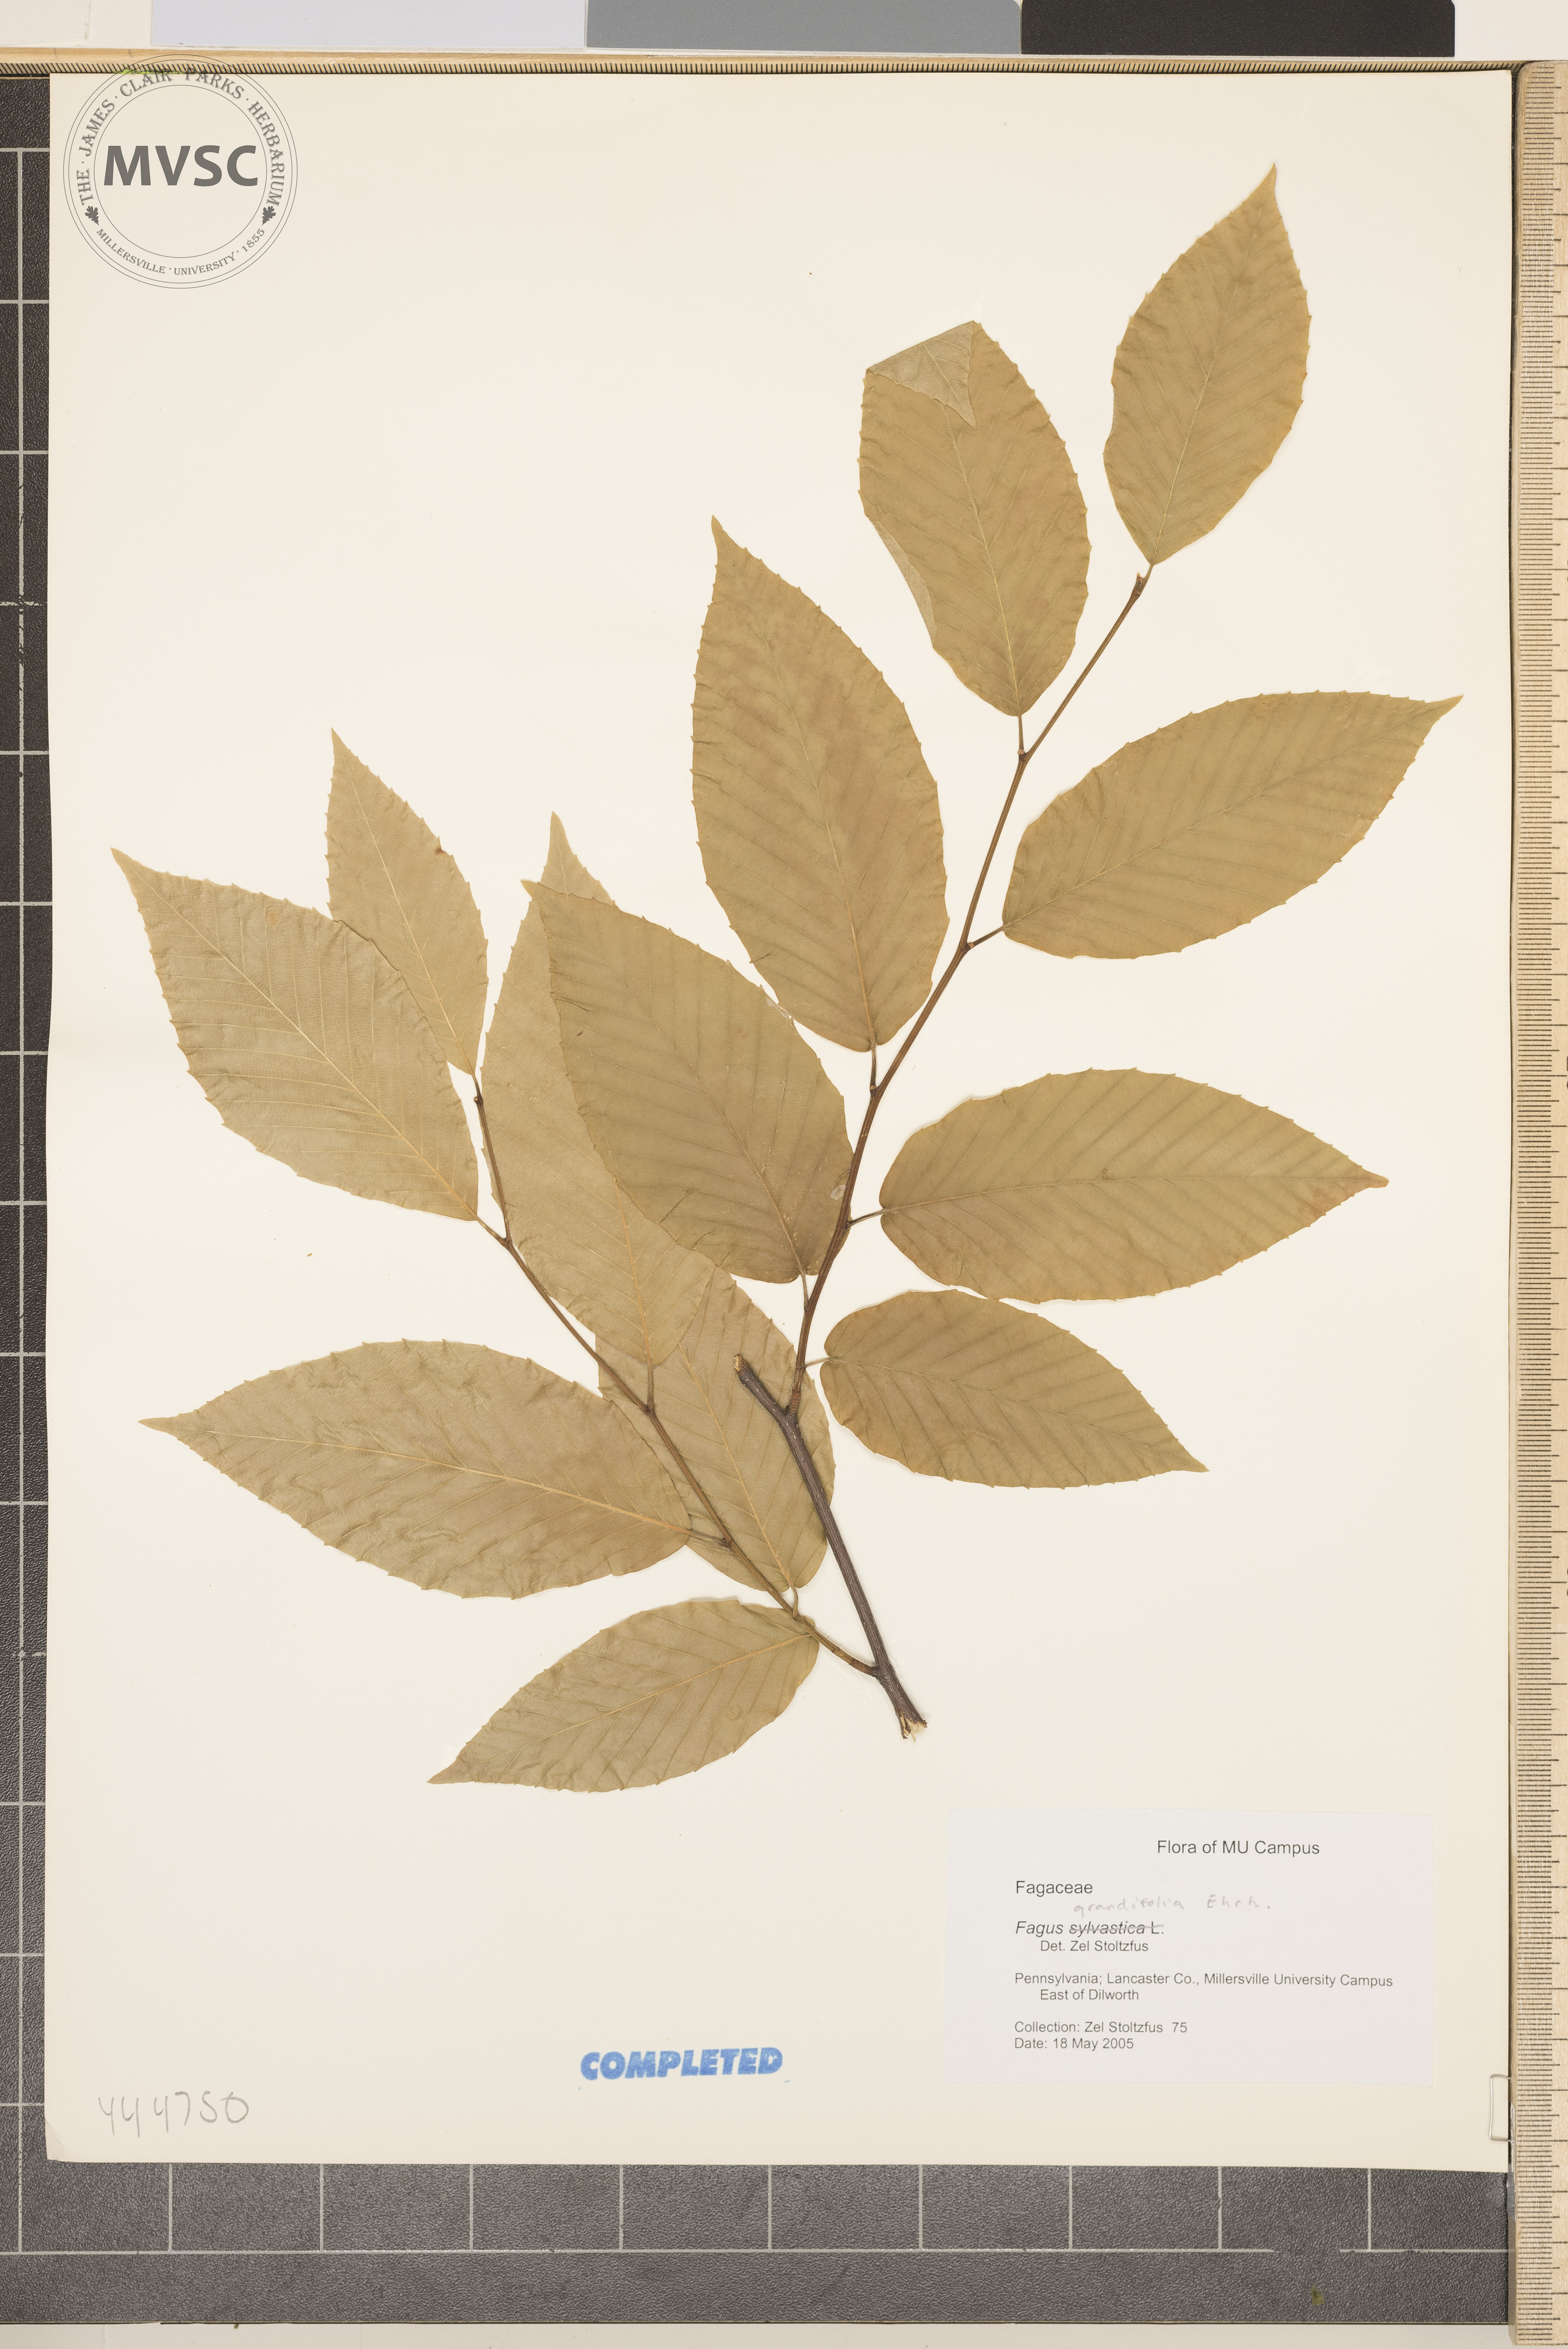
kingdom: Plantae
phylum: Tracheophyta
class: Magnoliopsida
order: Fagales
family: Fagaceae
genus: Fagus
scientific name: Fagus grandifolia
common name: American beech
